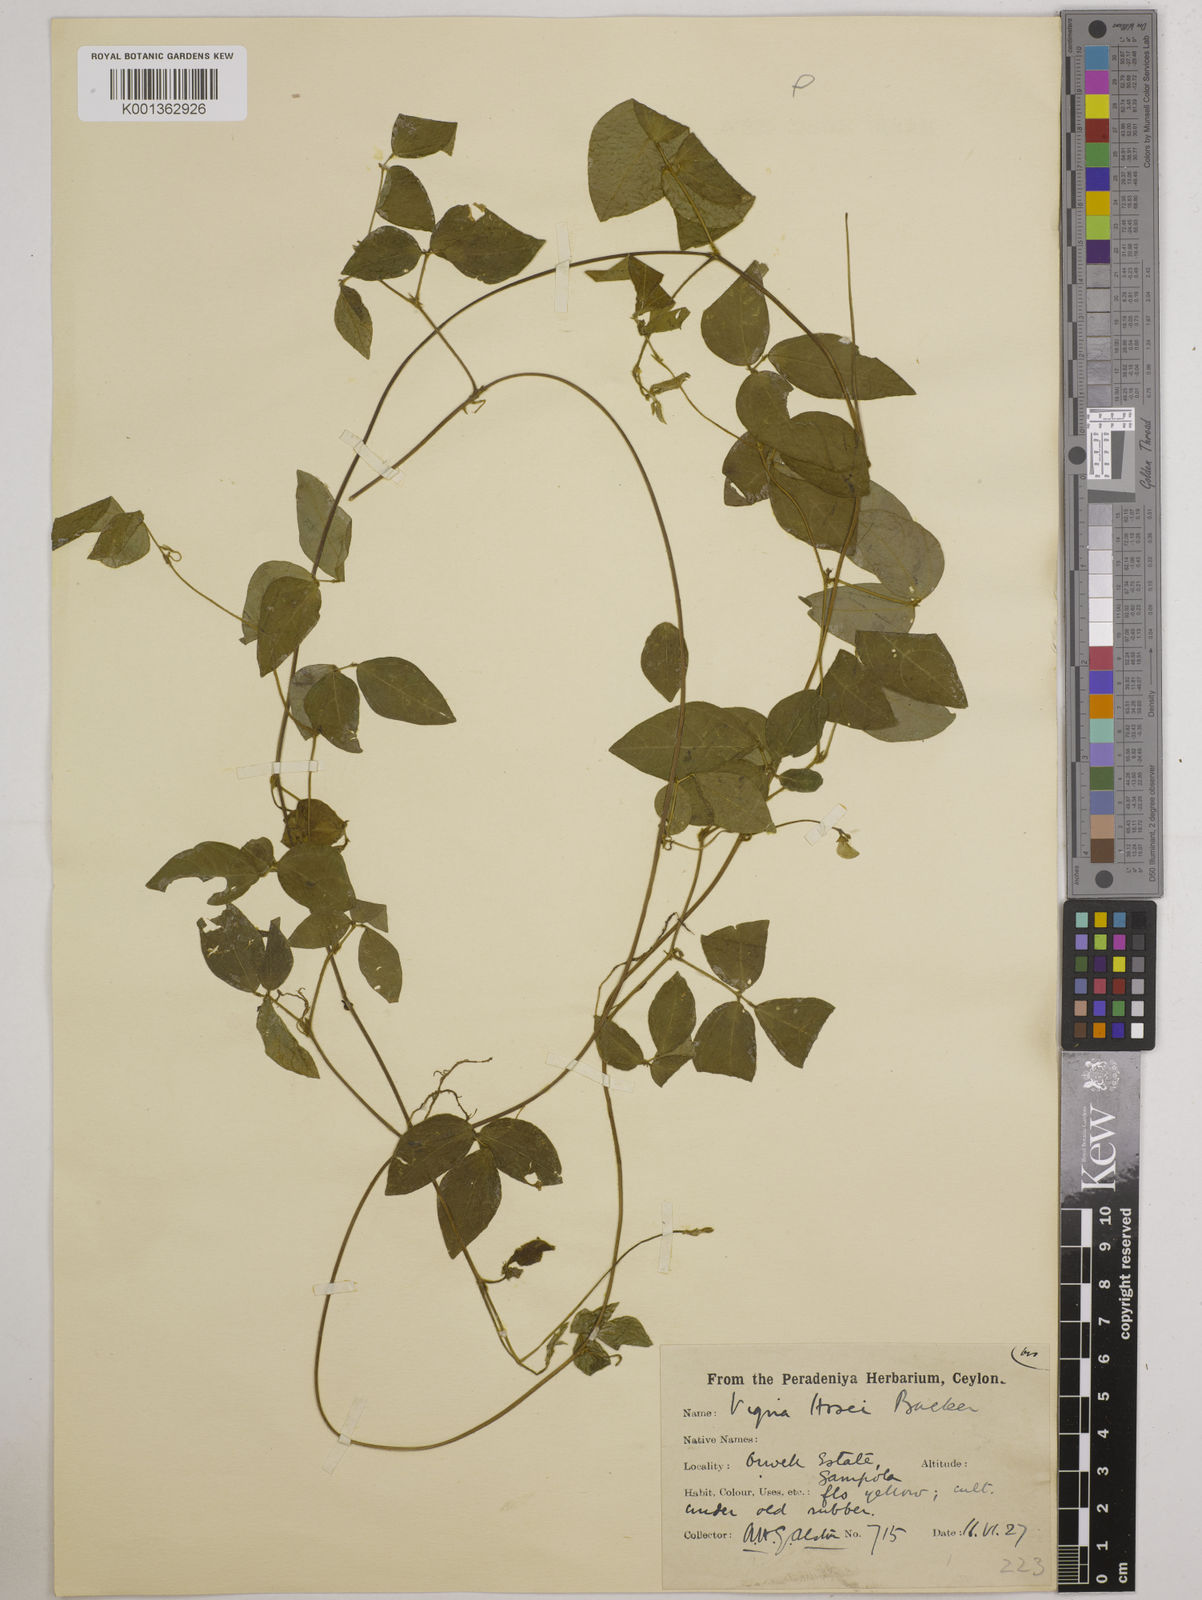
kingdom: Plantae
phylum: Tracheophyta
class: Magnoliopsida
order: Fabales
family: Fabaceae
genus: Vigna
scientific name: Vigna hosei
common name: Sarawak-bean
